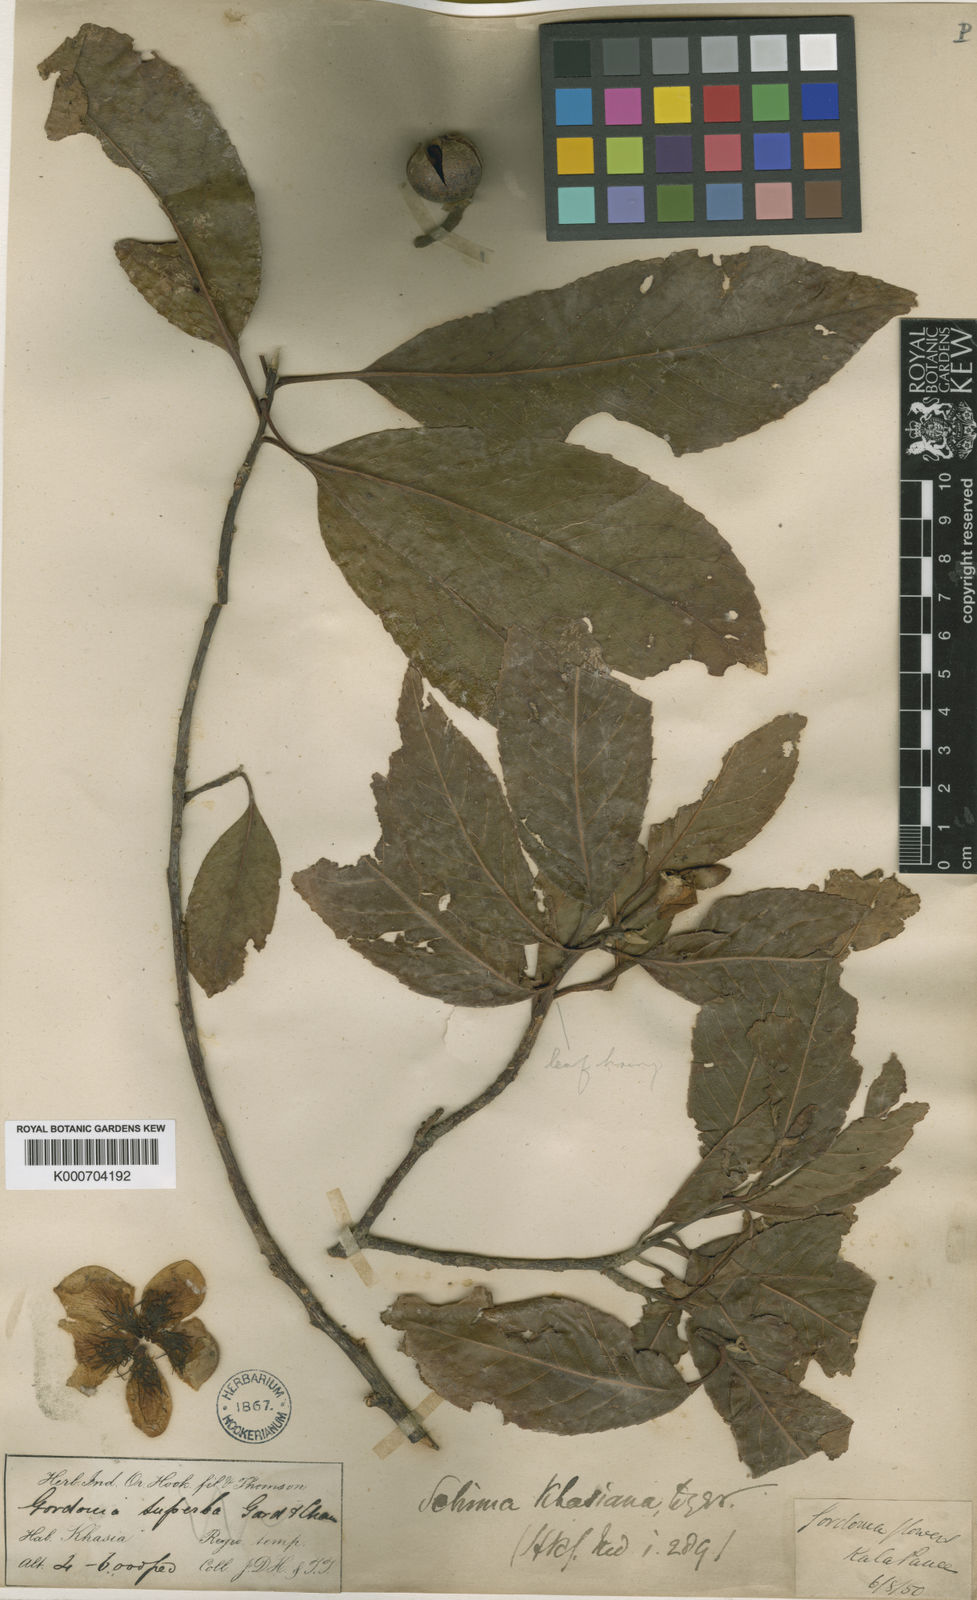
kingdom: Plantae
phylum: Tracheophyta
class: Magnoliopsida
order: Ericales
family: Theaceae
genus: Schima
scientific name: Schima
